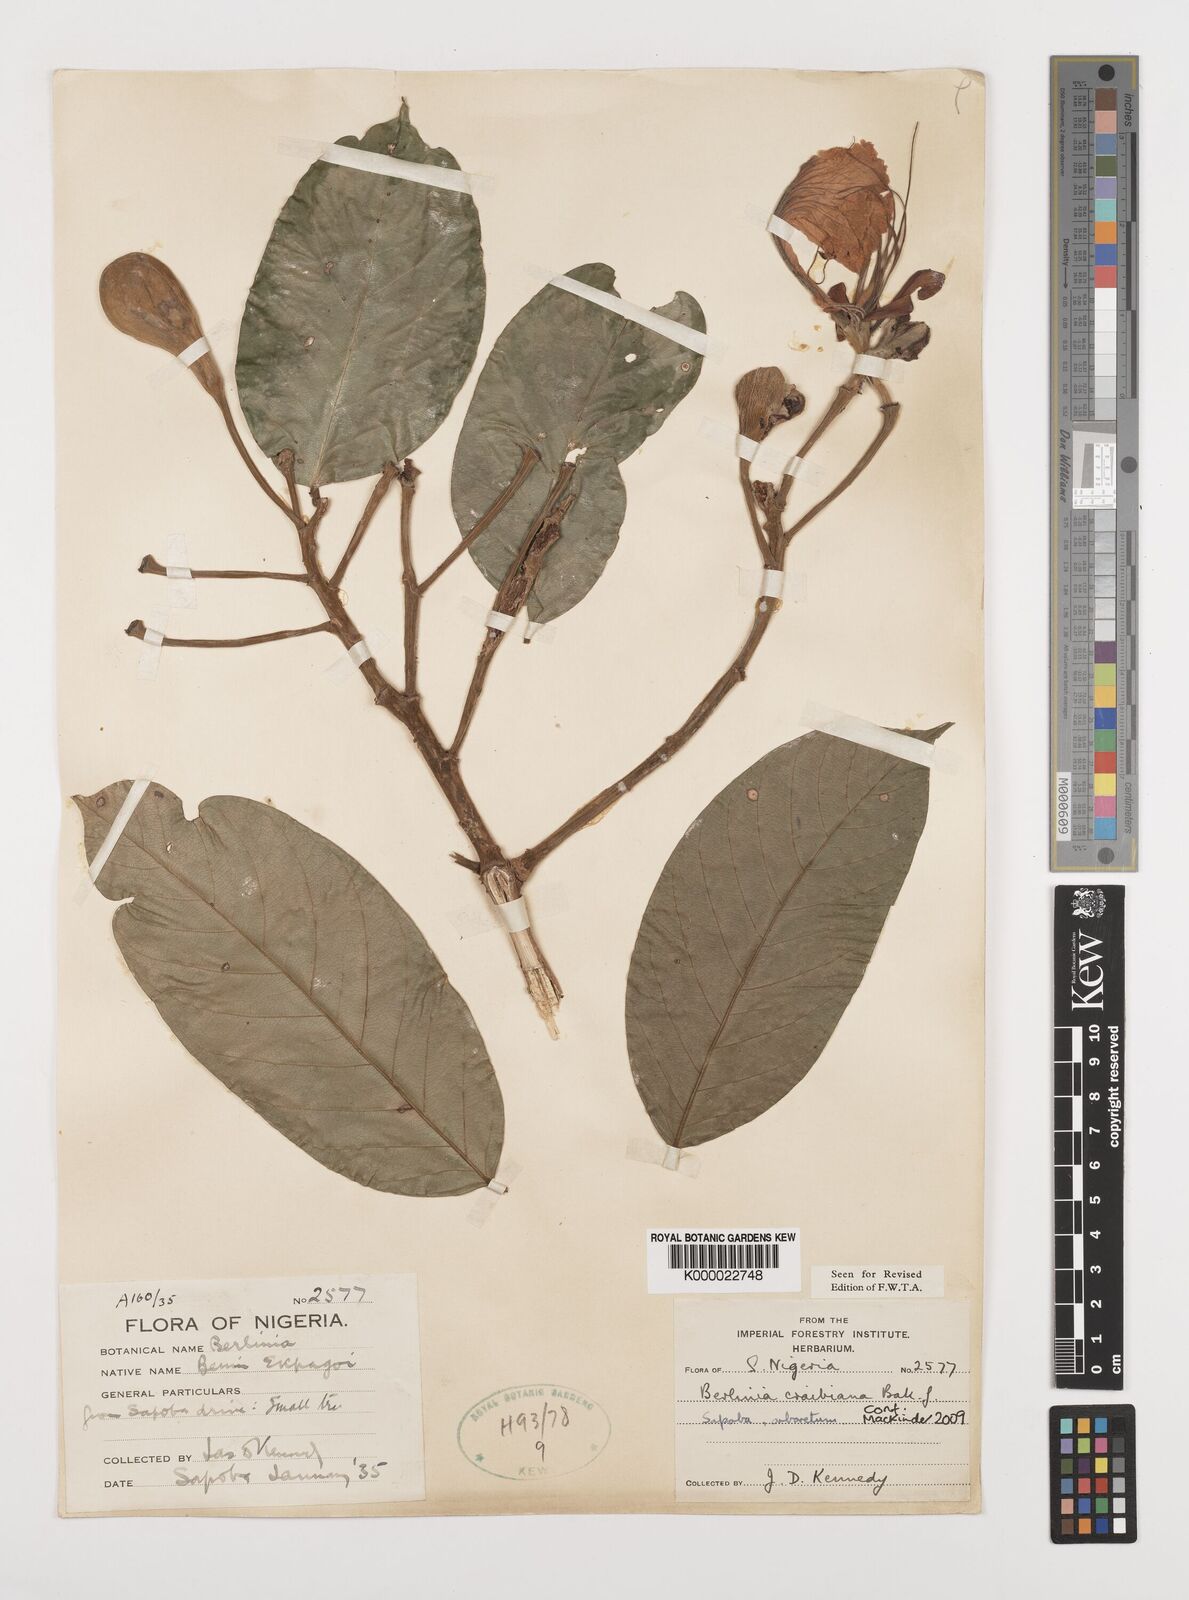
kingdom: Plantae
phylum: Tracheophyta
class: Magnoliopsida
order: Fabales
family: Fabaceae
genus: Berlinia
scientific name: Berlinia craibiana
